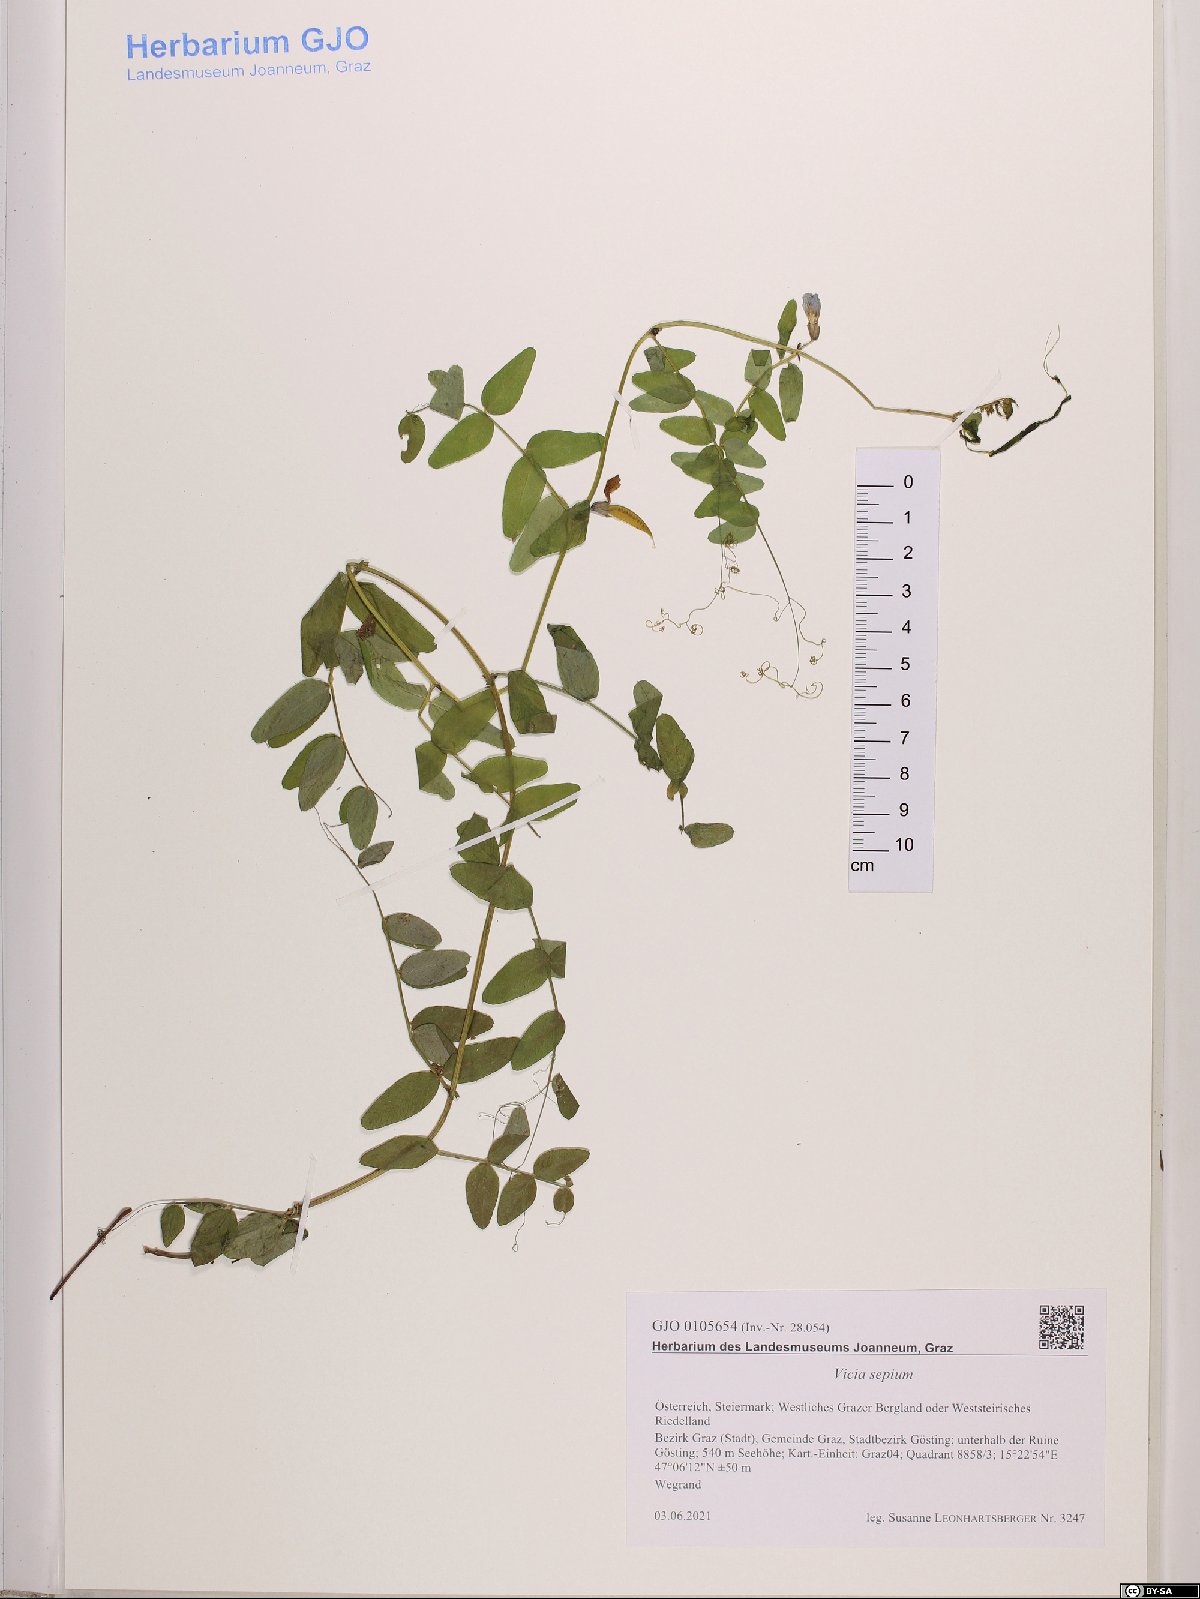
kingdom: Plantae
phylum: Tracheophyta
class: Magnoliopsida
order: Fabales
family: Fabaceae
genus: Vicia
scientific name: Vicia sepium
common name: Bush vetch
